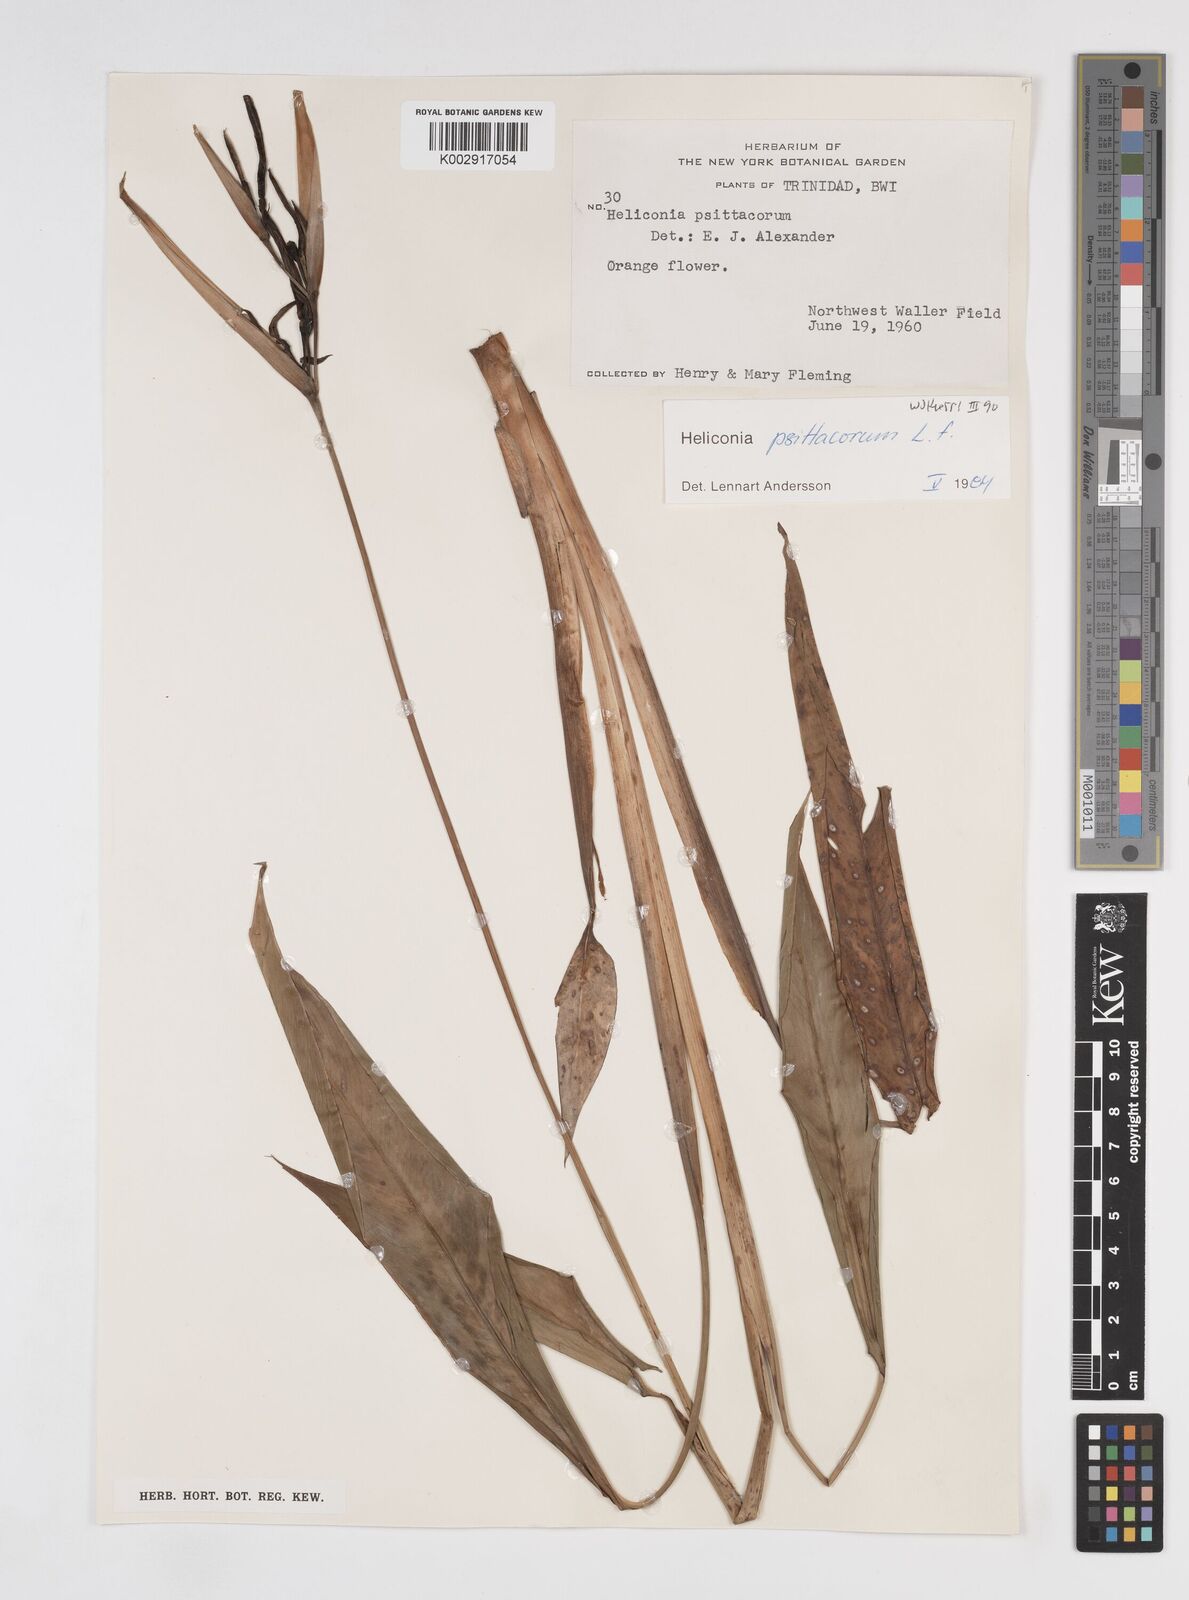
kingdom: Plantae
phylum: Tracheophyta
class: Liliopsida
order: Zingiberales
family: Heliconiaceae
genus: Heliconia
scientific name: Heliconia psittacorum
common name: Parrot's-flower
